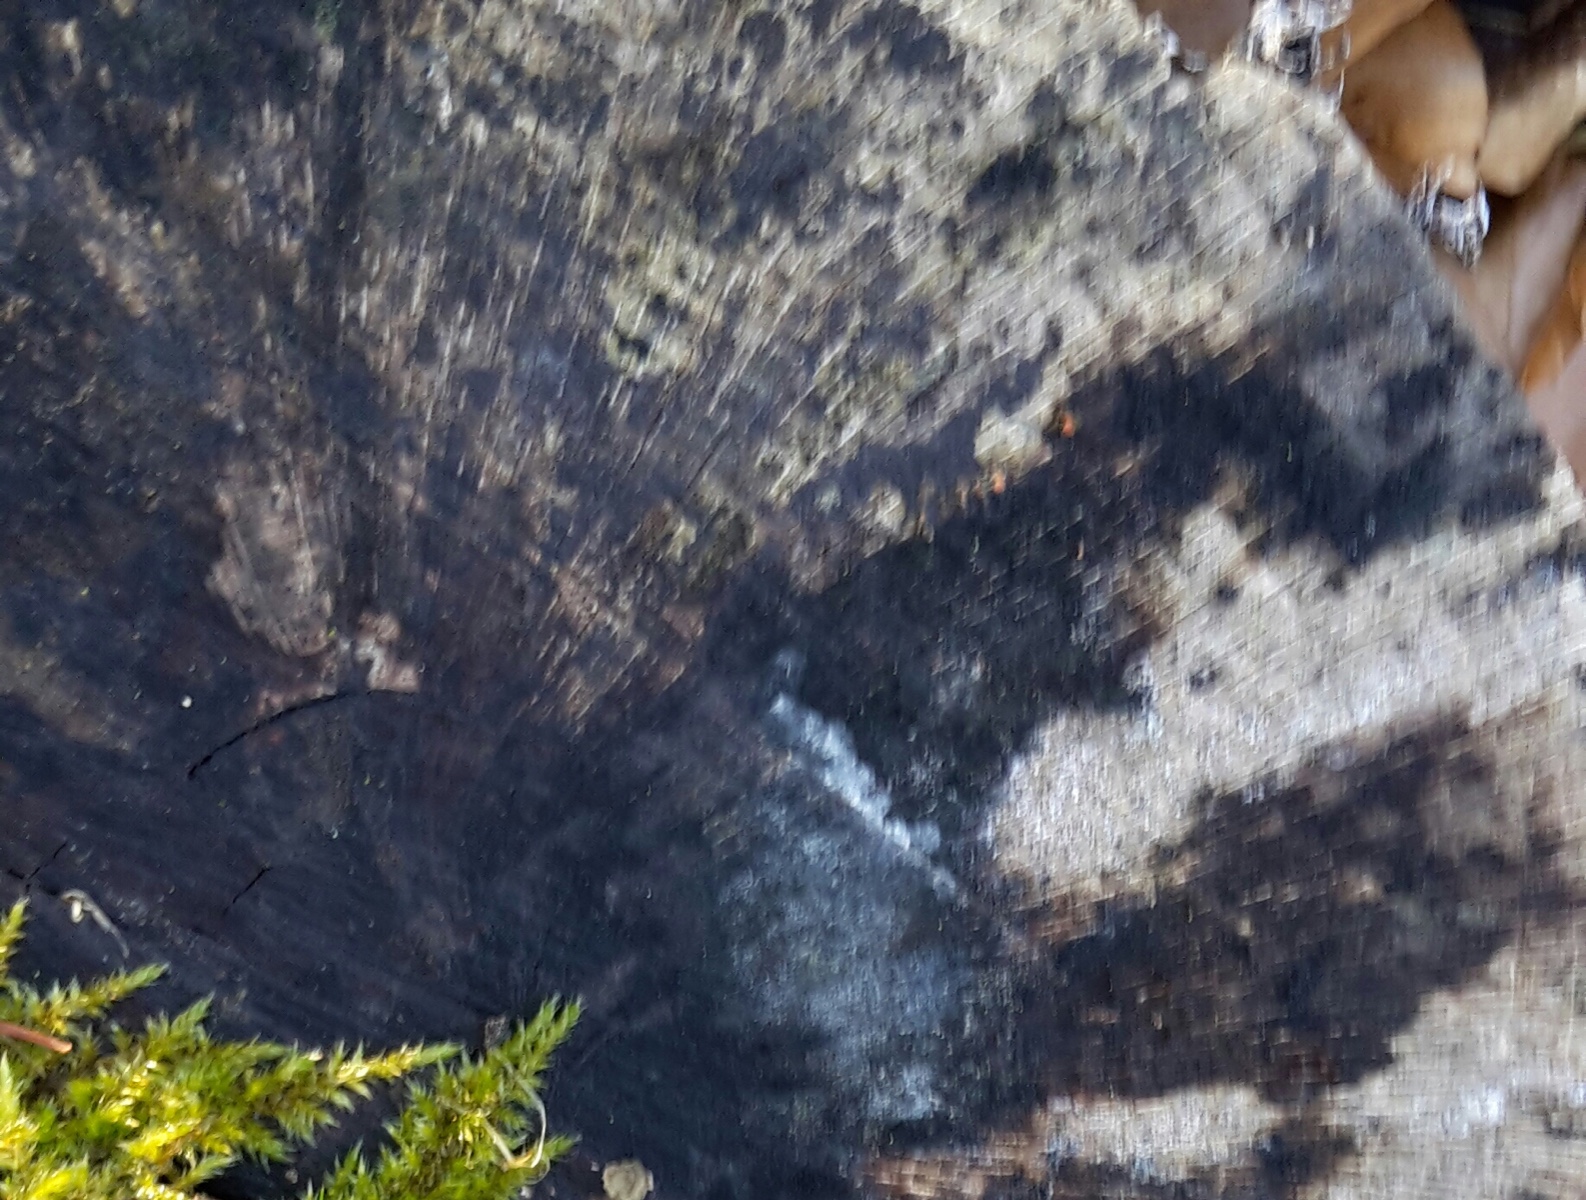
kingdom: Fungi
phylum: Ascomycota
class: Leotiomycetes
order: Helotiales
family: Helotiaceae
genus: Bispora
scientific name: Bispora pallescens
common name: måtte-snitskive
